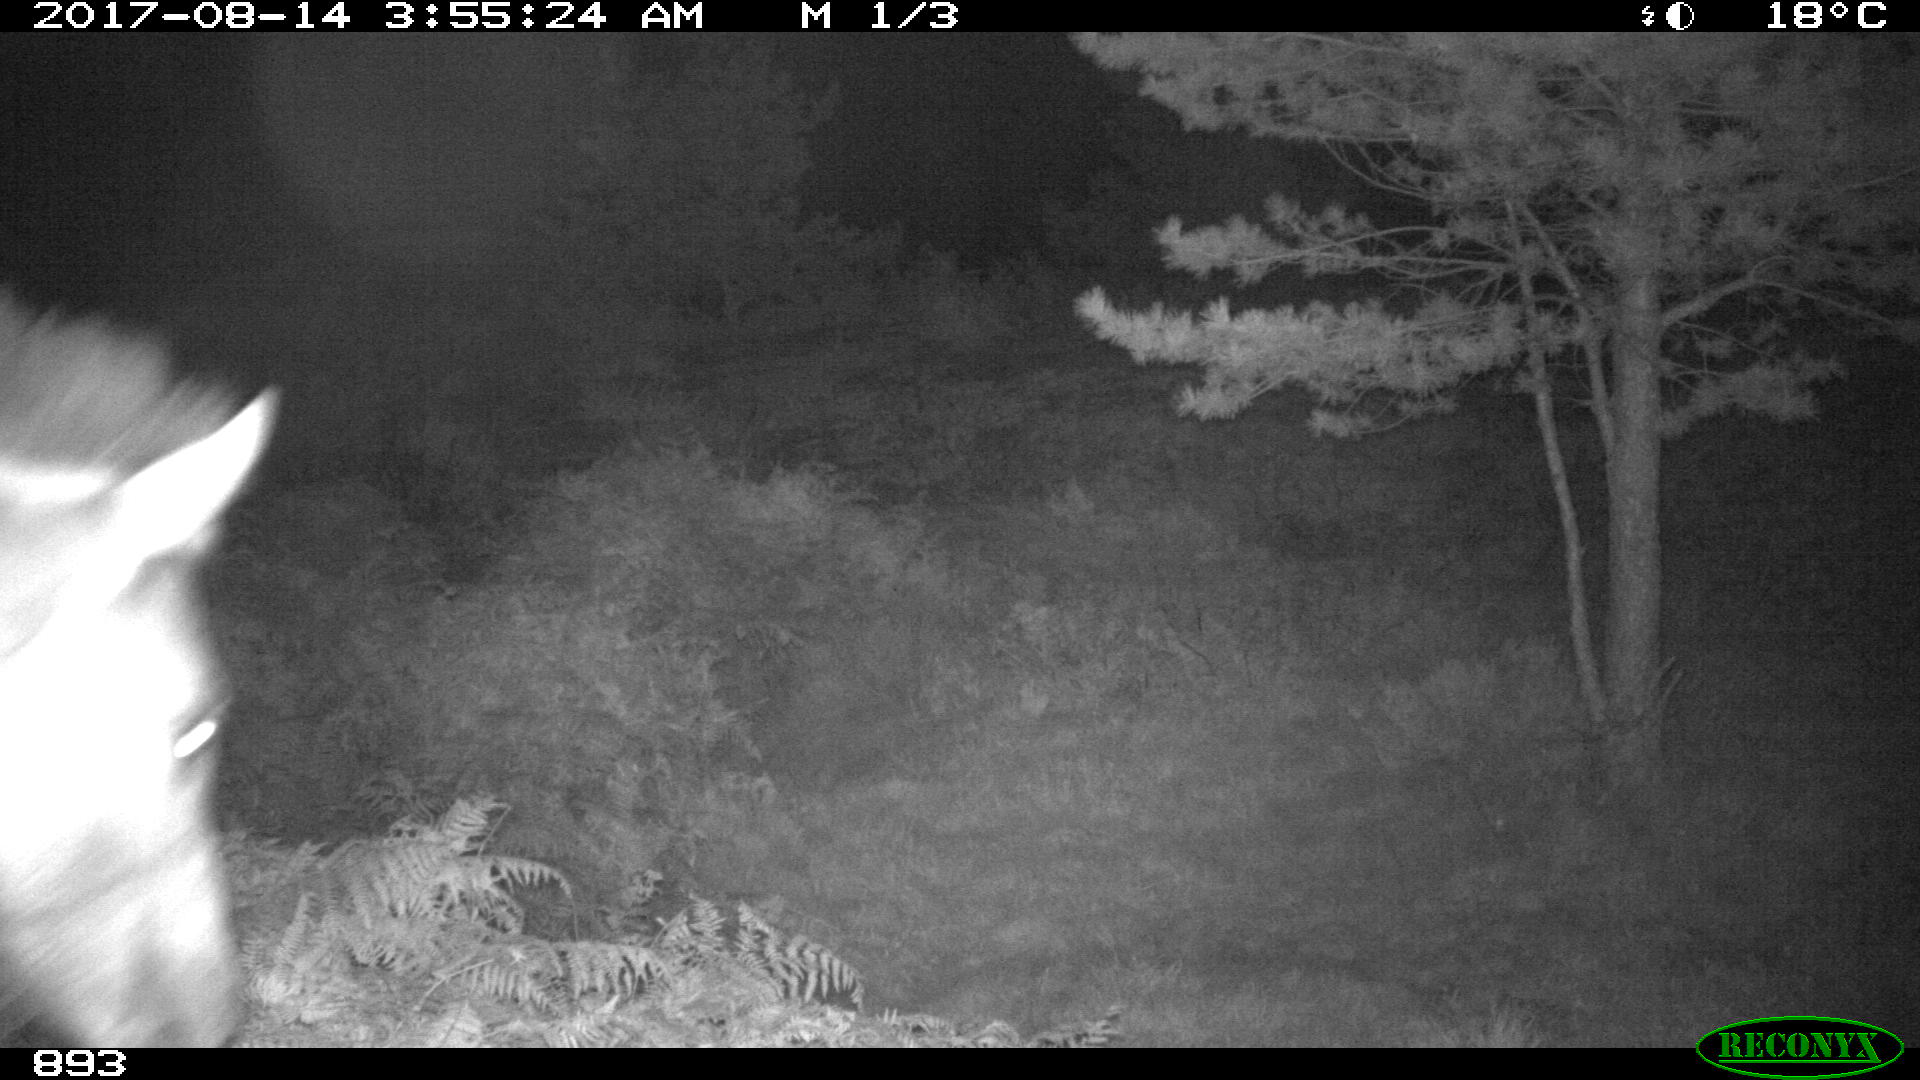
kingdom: Animalia
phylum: Chordata
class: Mammalia
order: Perissodactyla
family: Equidae
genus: Equus
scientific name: Equus caballus
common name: Horse
